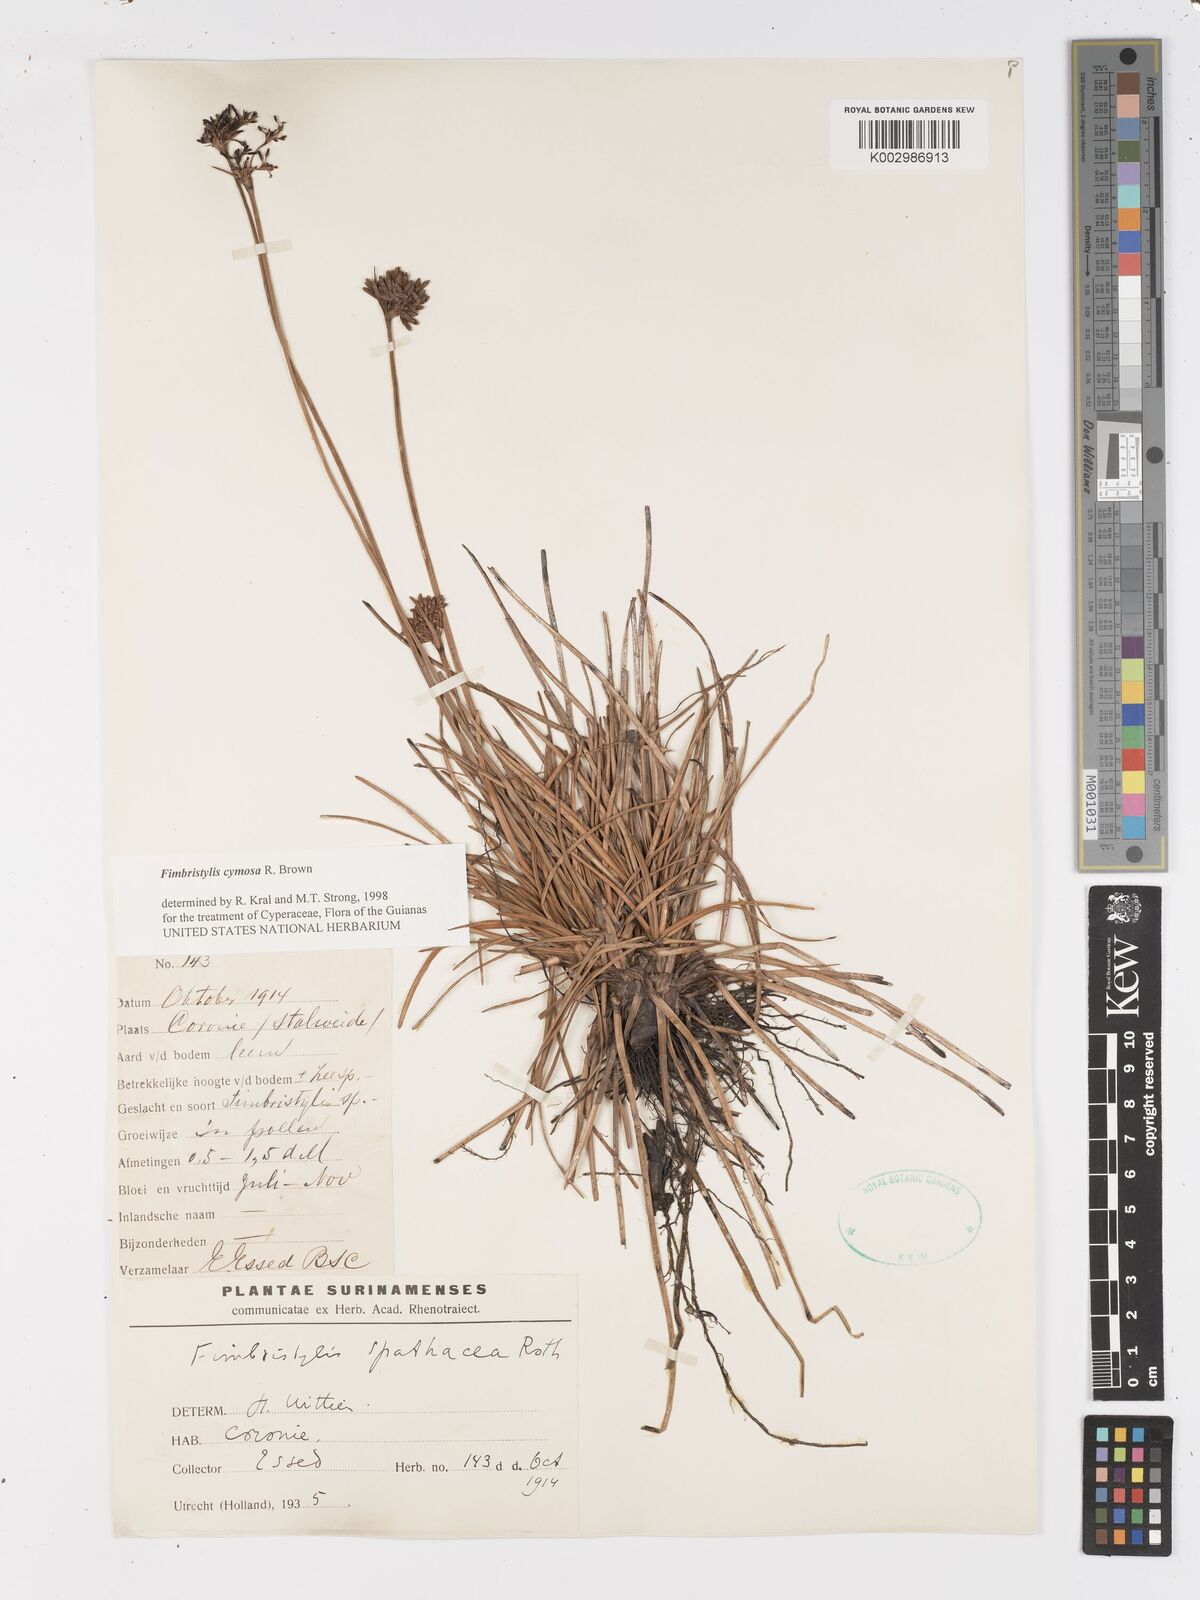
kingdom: Plantae
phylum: Tracheophyta
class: Liliopsida
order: Poales
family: Cyperaceae
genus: Fimbristylis
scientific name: Fimbristylis cymosa
